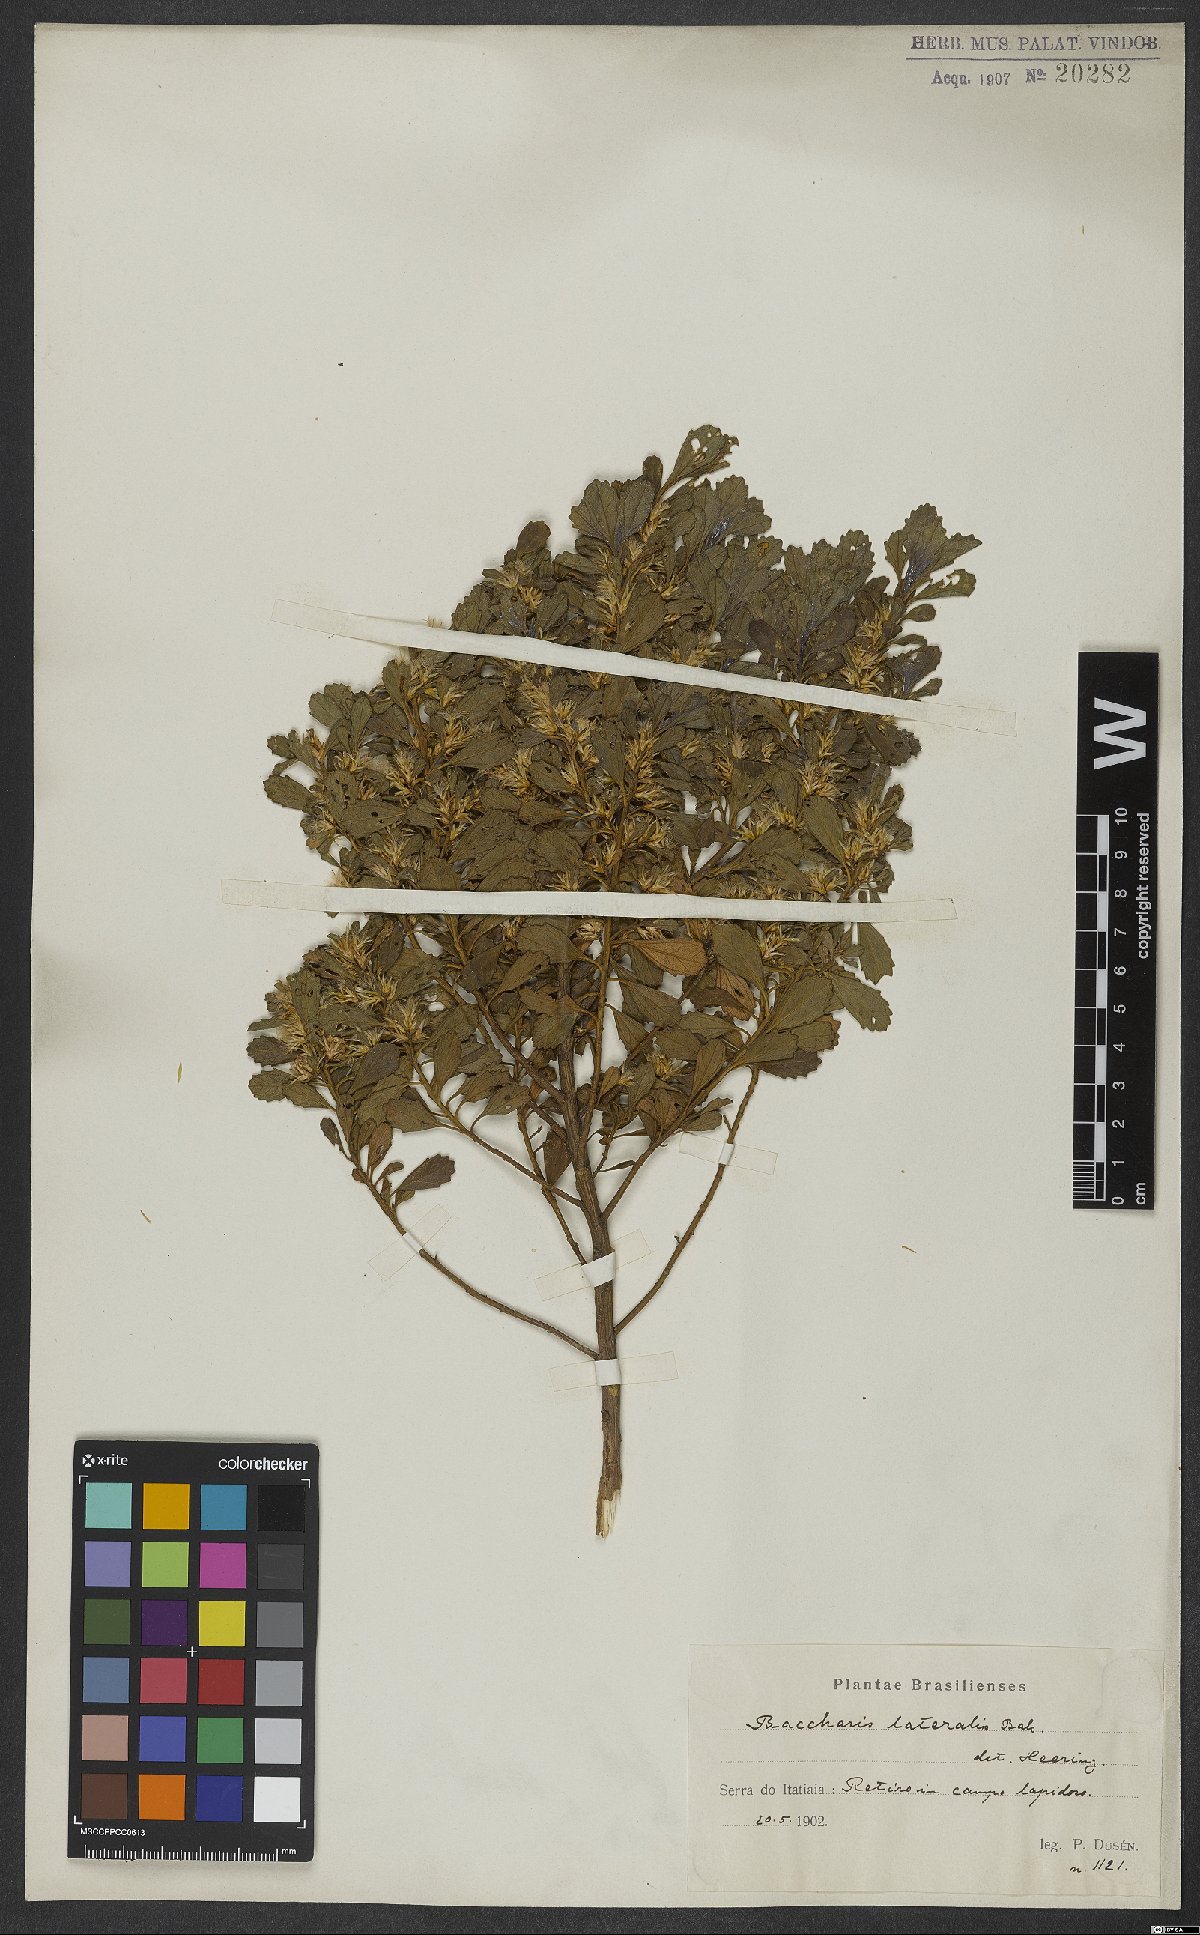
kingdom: Plantae
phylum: Tracheophyta
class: Magnoliopsida
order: Asterales
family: Asteraceae
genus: Baccharis
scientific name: Baccharis lateralis
